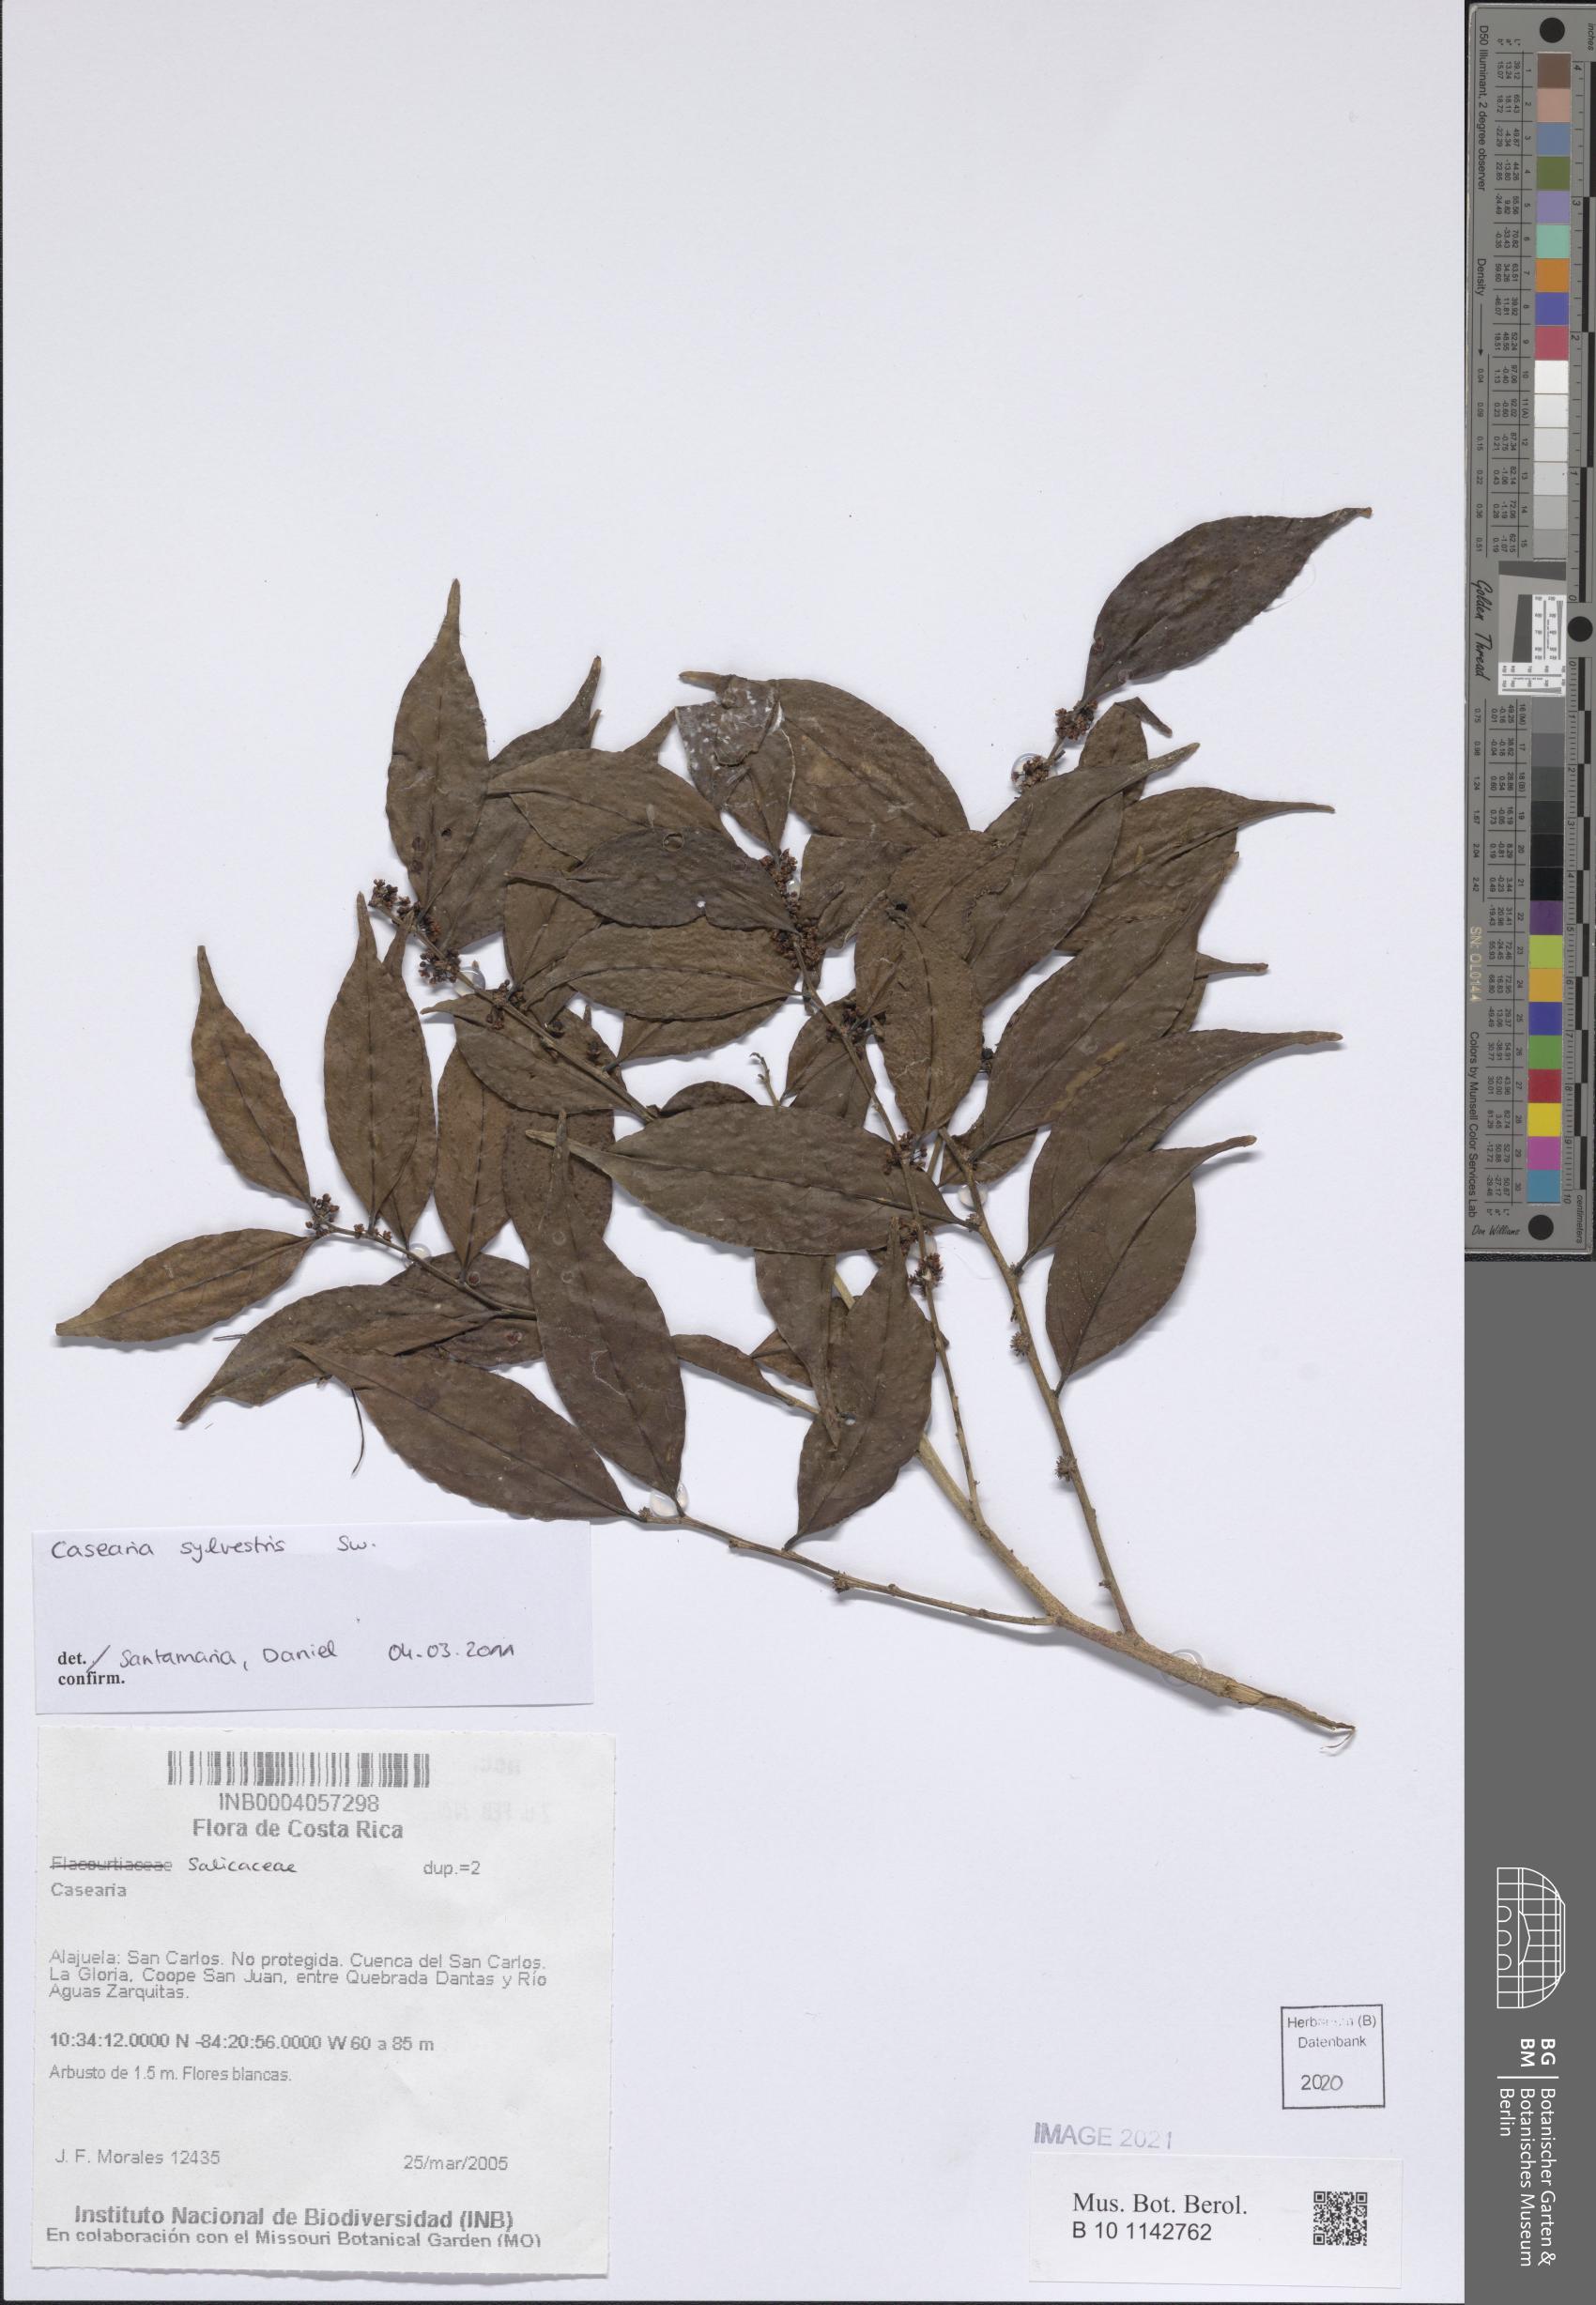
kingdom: Plantae
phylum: Tracheophyta
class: Magnoliopsida
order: Malpighiales
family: Salicaceae
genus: Casearia
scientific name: Casearia sylvestris
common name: Wild sage
